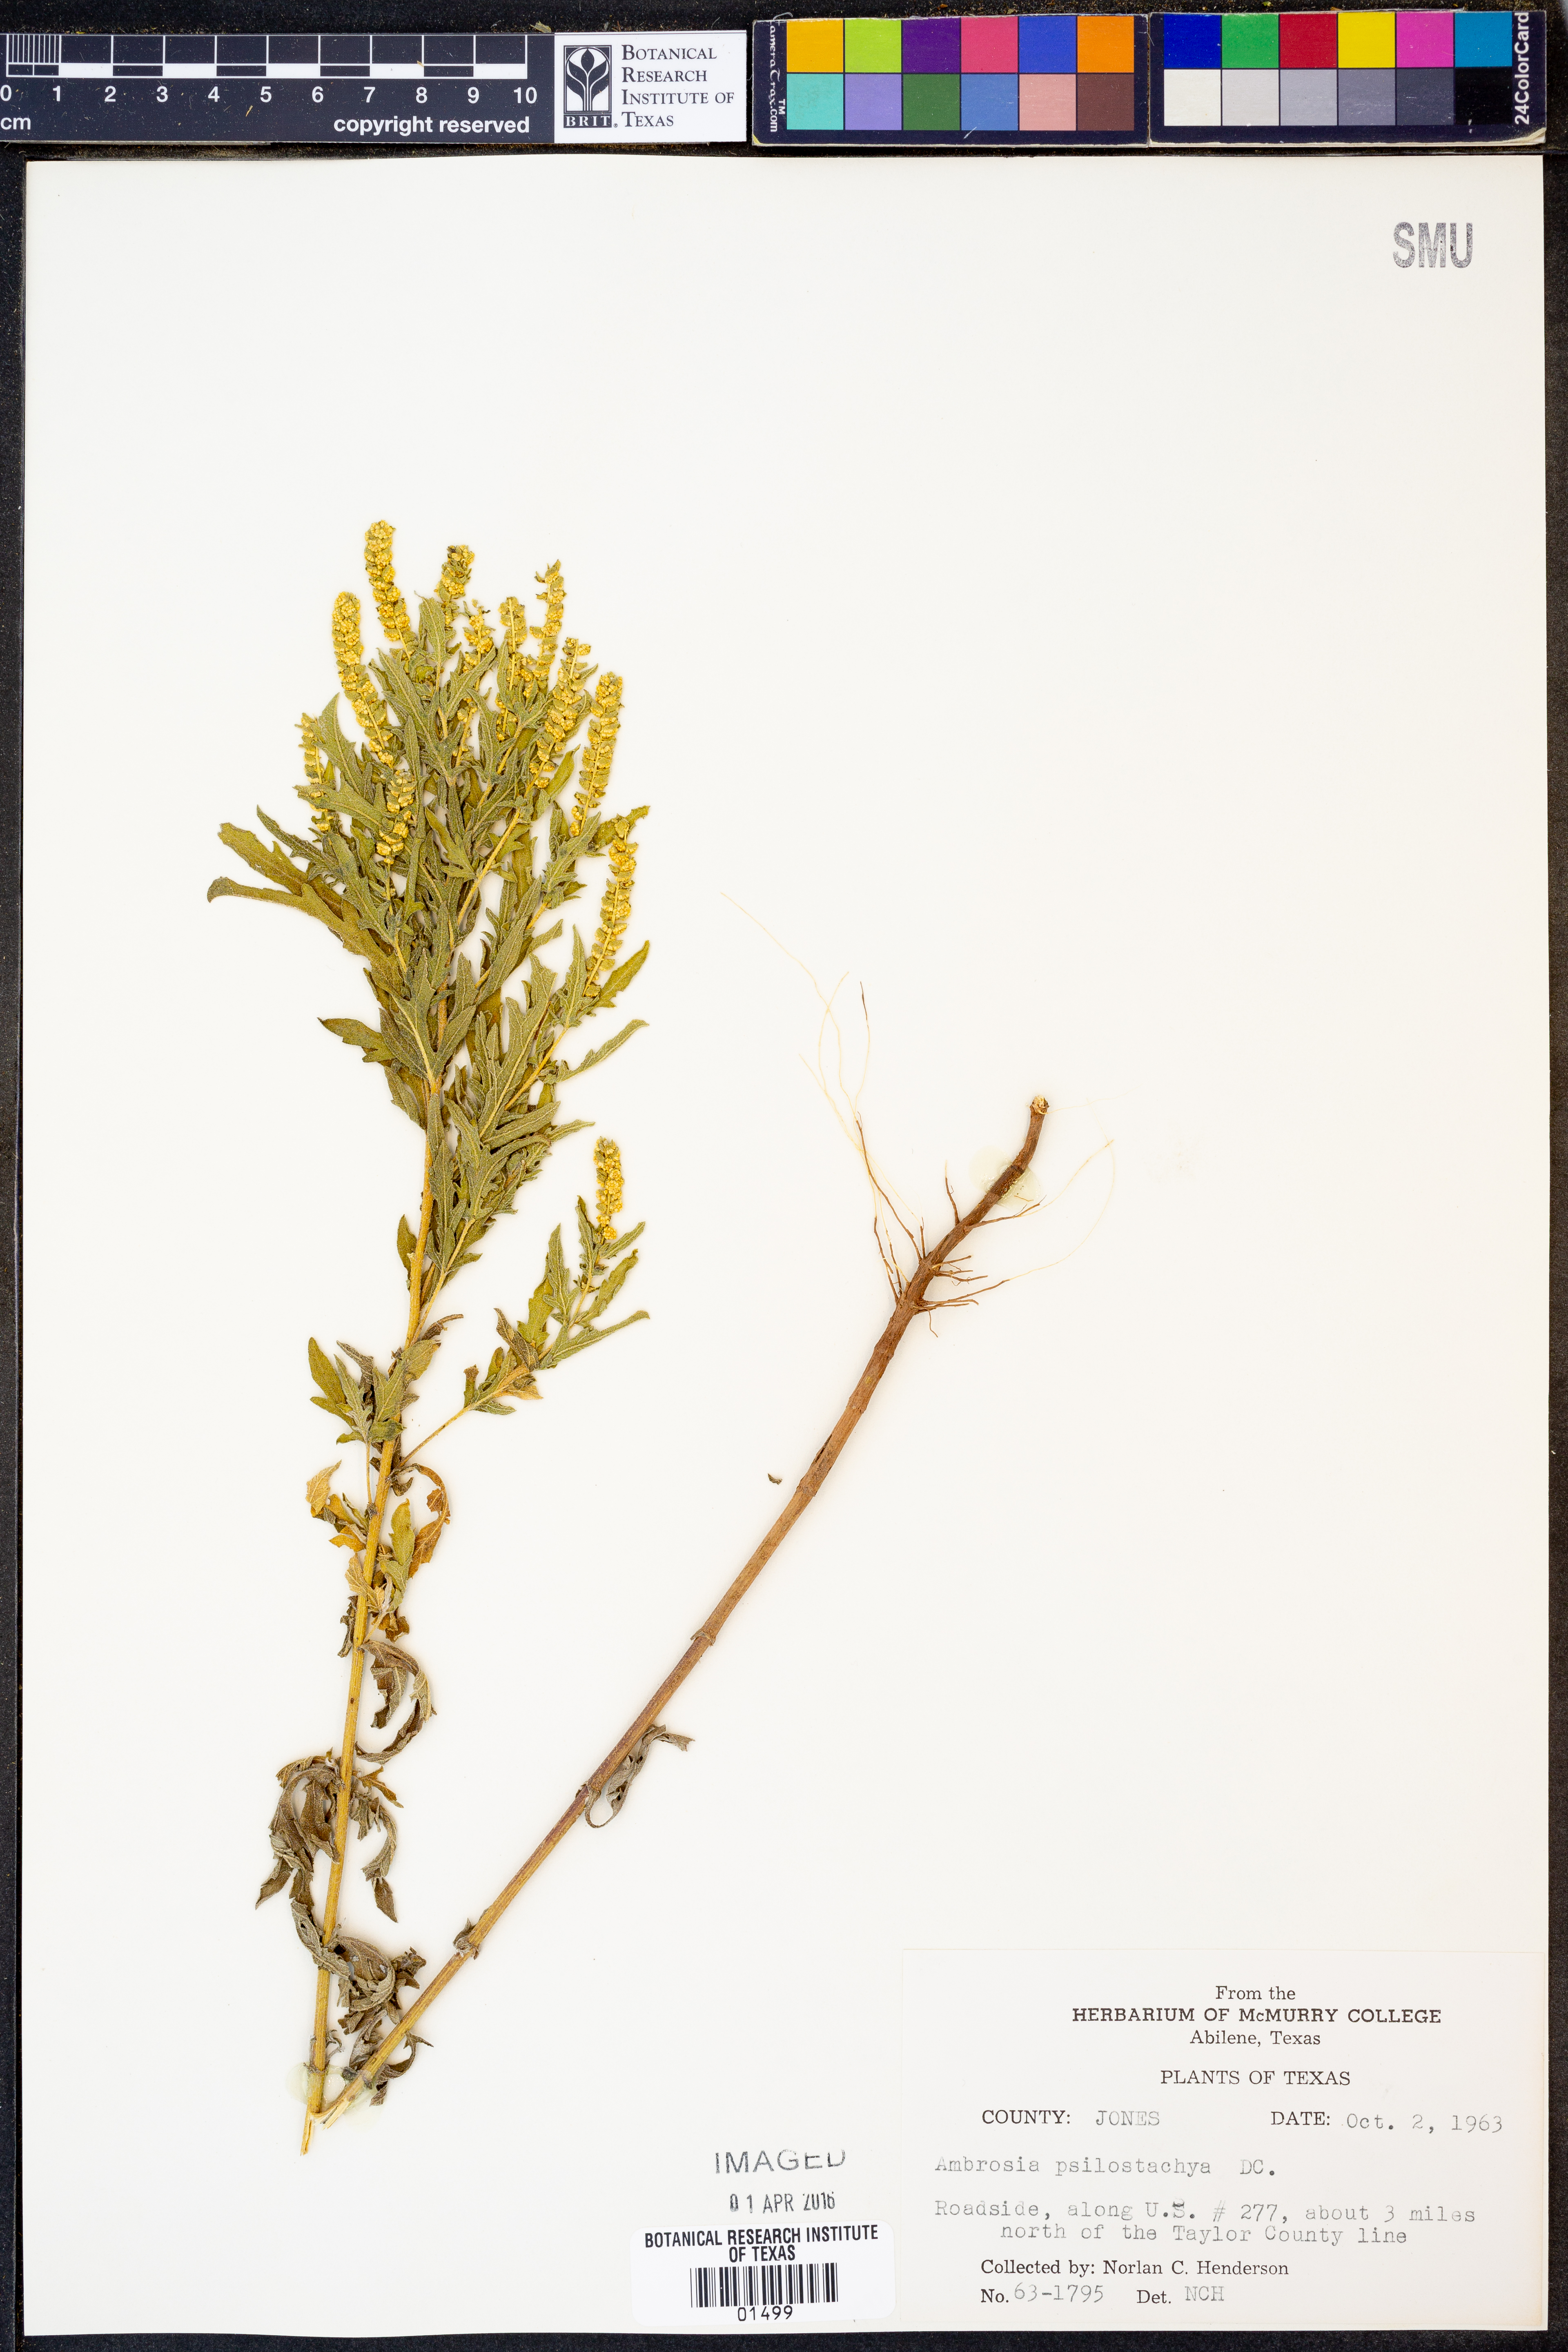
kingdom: Plantae
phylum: Tracheophyta
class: Magnoliopsida
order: Asterales
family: Asteraceae
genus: Ambrosia
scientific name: Ambrosia psilostachya
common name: Perennial ragweed
